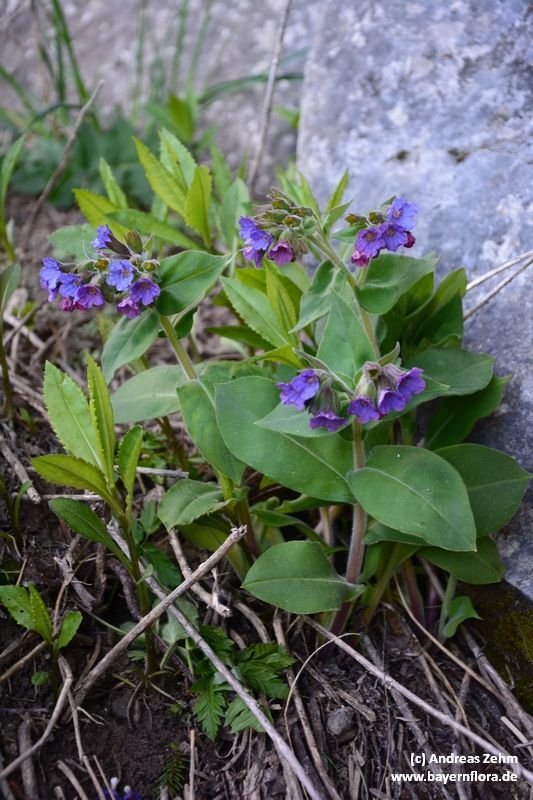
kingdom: Plantae
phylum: Tracheophyta
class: Magnoliopsida
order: Boraginales
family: Boraginaceae
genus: Pulmonaria
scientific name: Pulmonaria mollis
